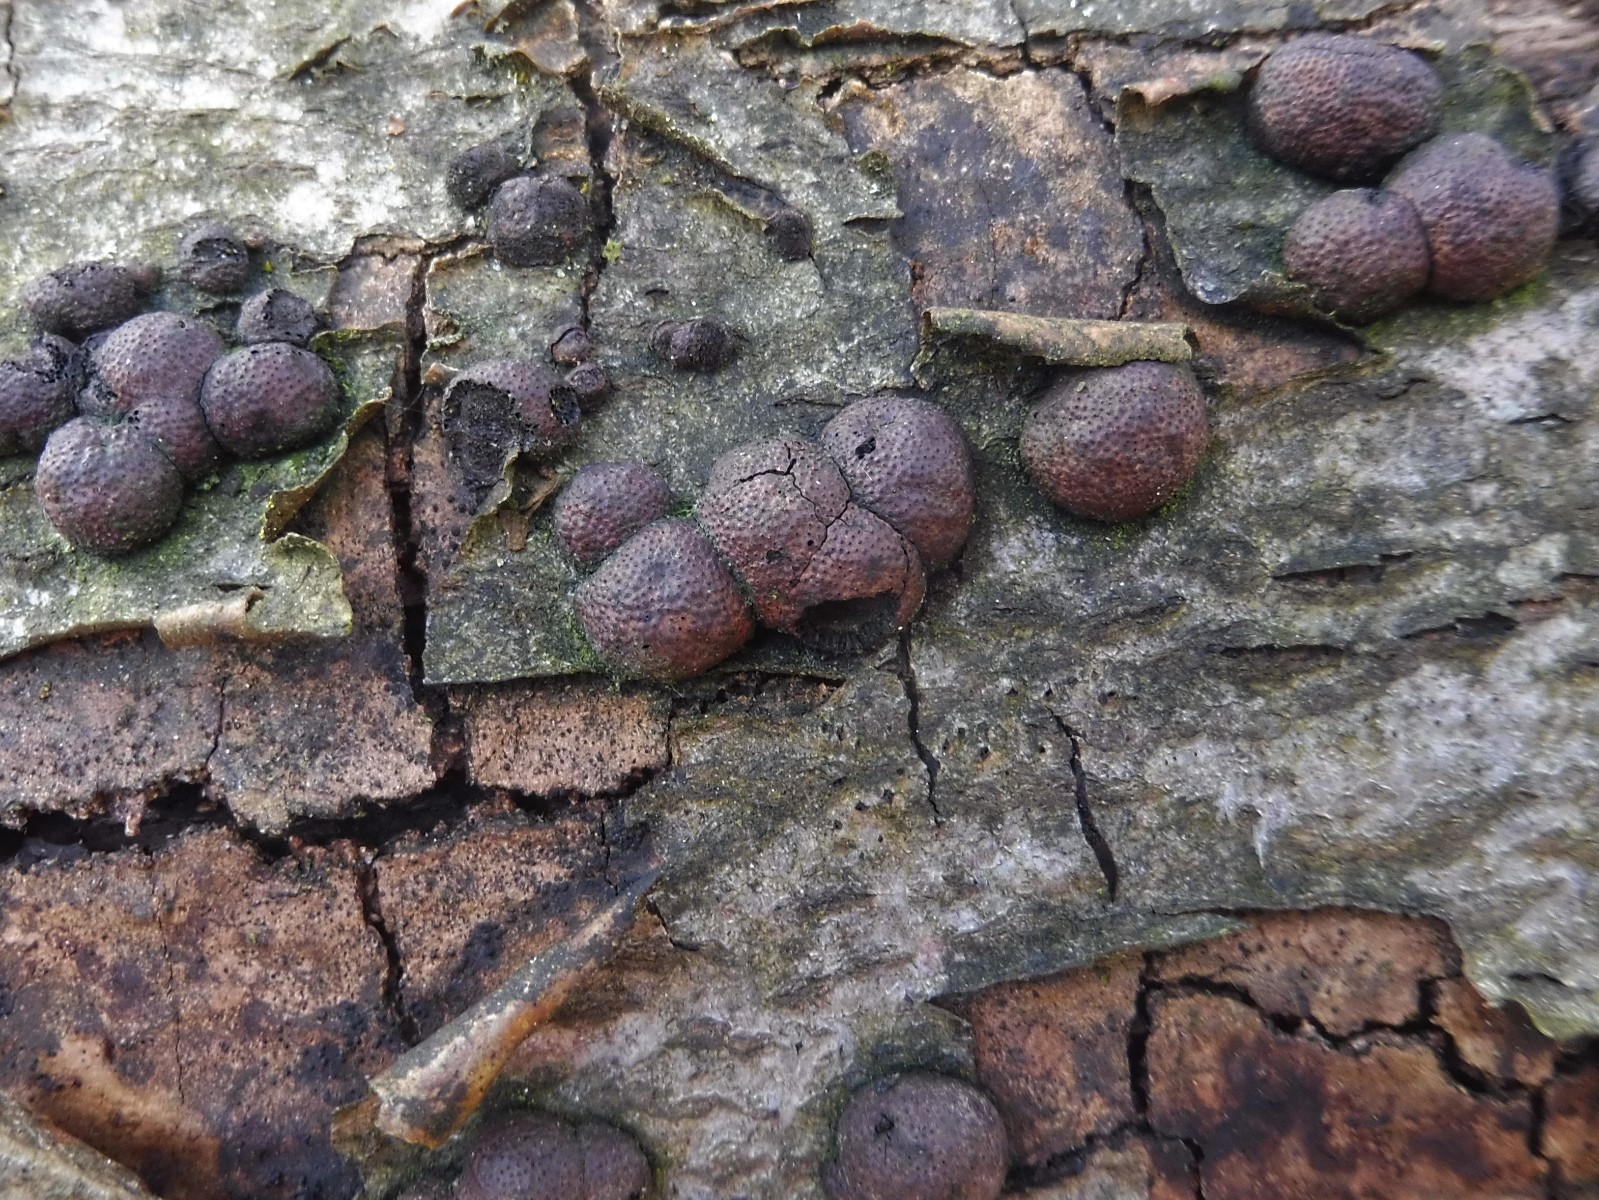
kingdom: Fungi
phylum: Ascomycota
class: Sordariomycetes
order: Xylariales
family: Hypoxylaceae
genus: Hypoxylon
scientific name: Hypoxylon fragiforme
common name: kuljordbær
